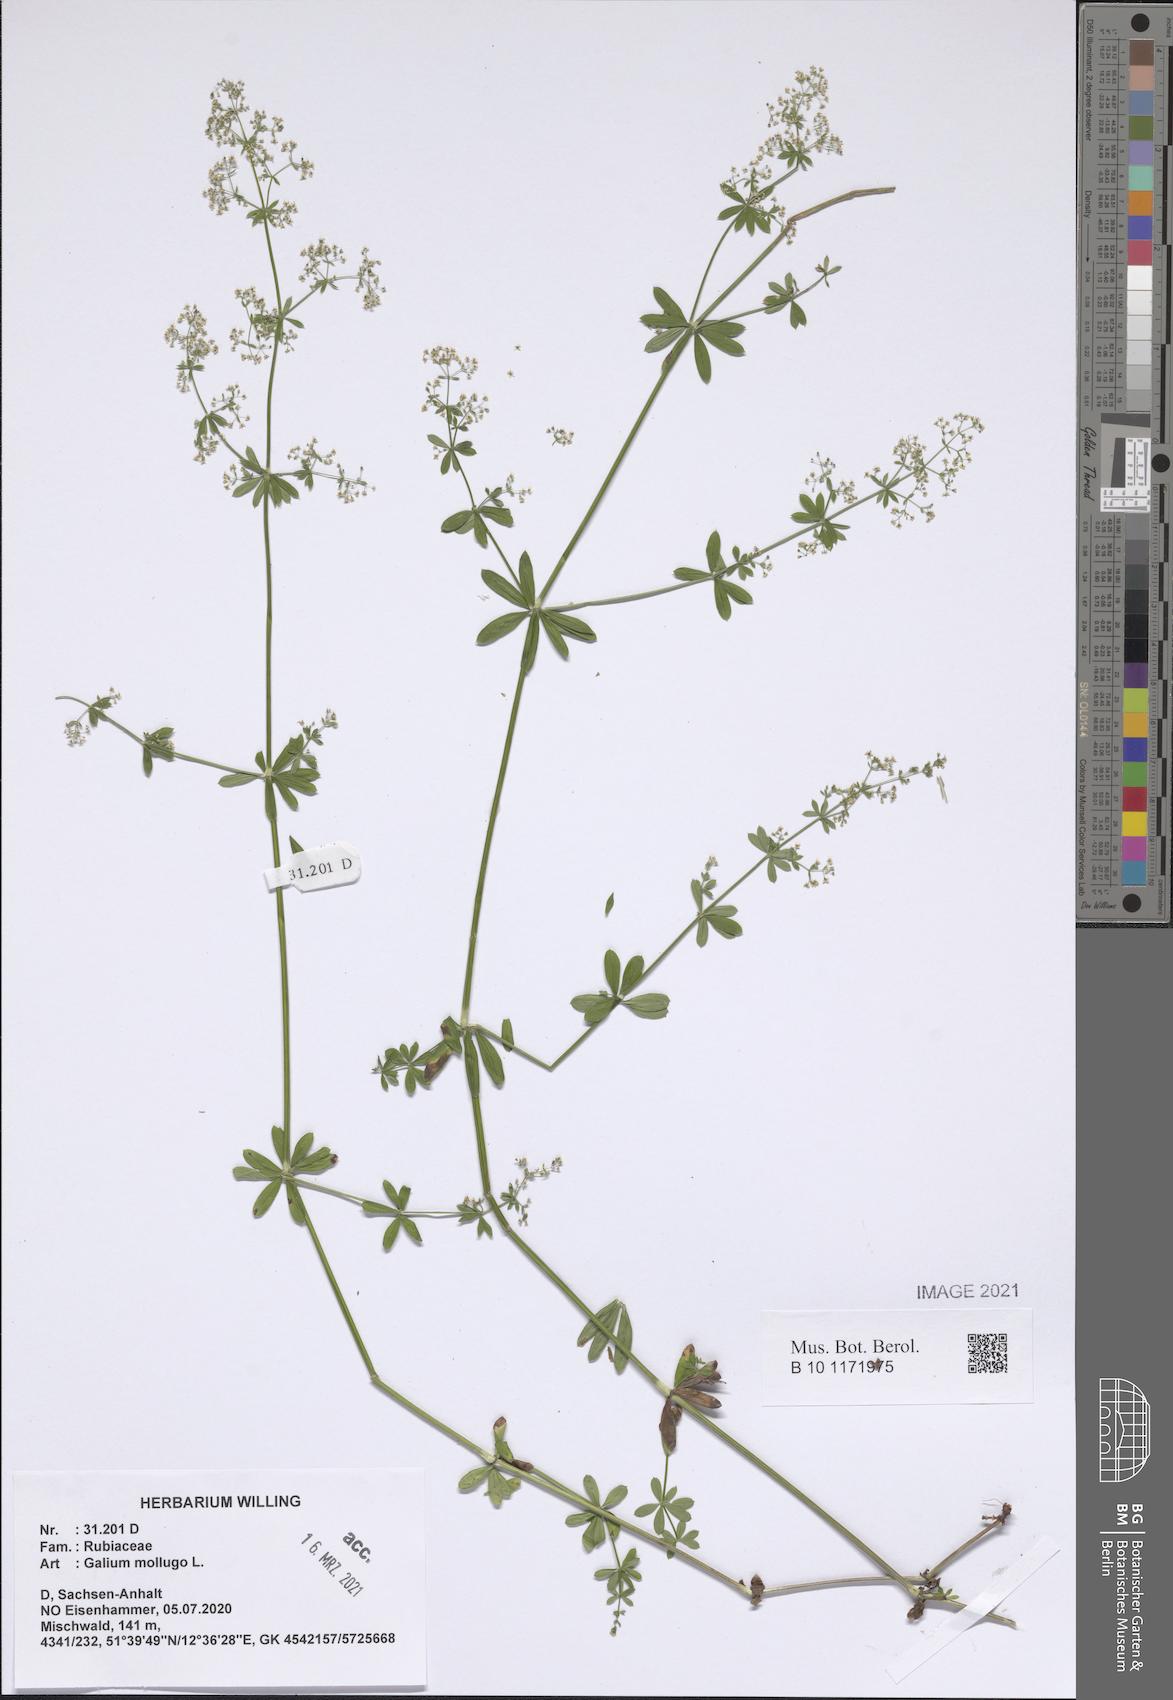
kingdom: Plantae
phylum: Tracheophyta
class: Magnoliopsida
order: Gentianales
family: Rubiaceae
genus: Galium
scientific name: Galium mollugo
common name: Hedge bedstraw
